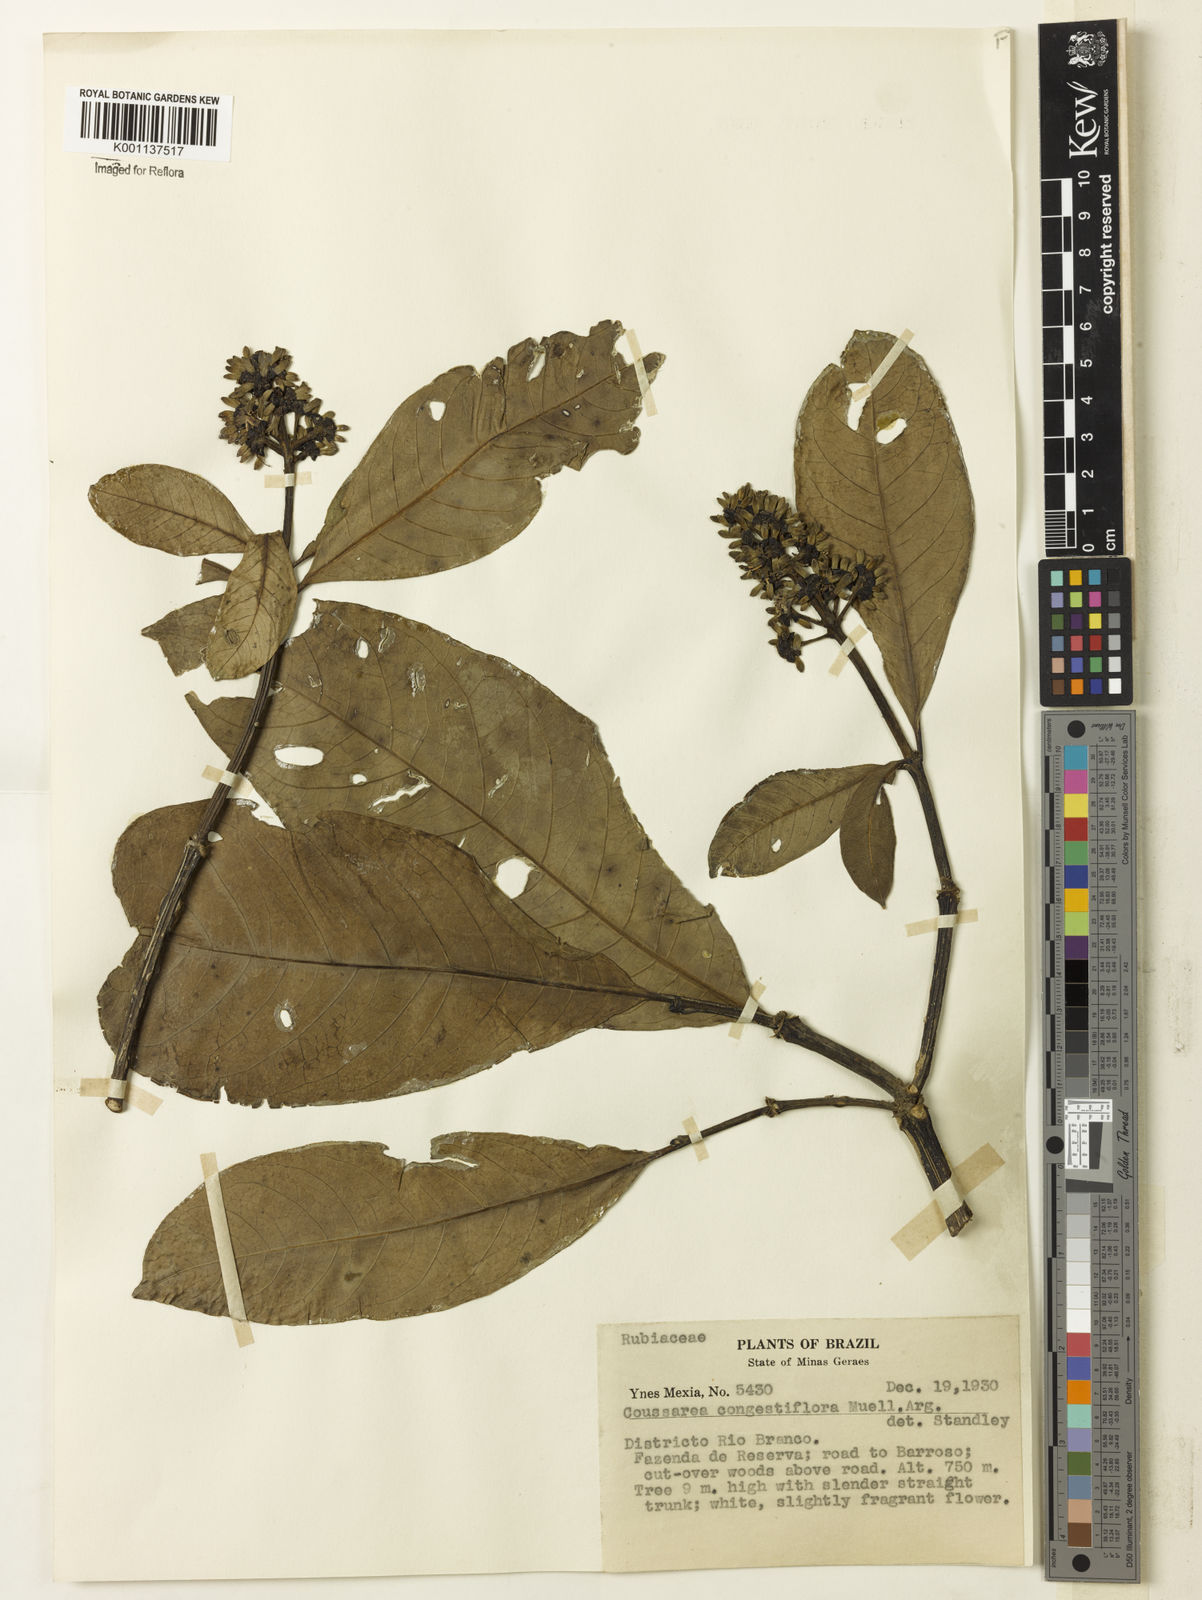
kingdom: Plantae
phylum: Tracheophyta
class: Magnoliopsida
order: Gentianales
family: Rubiaceae
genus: Coussarea
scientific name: Coussarea
